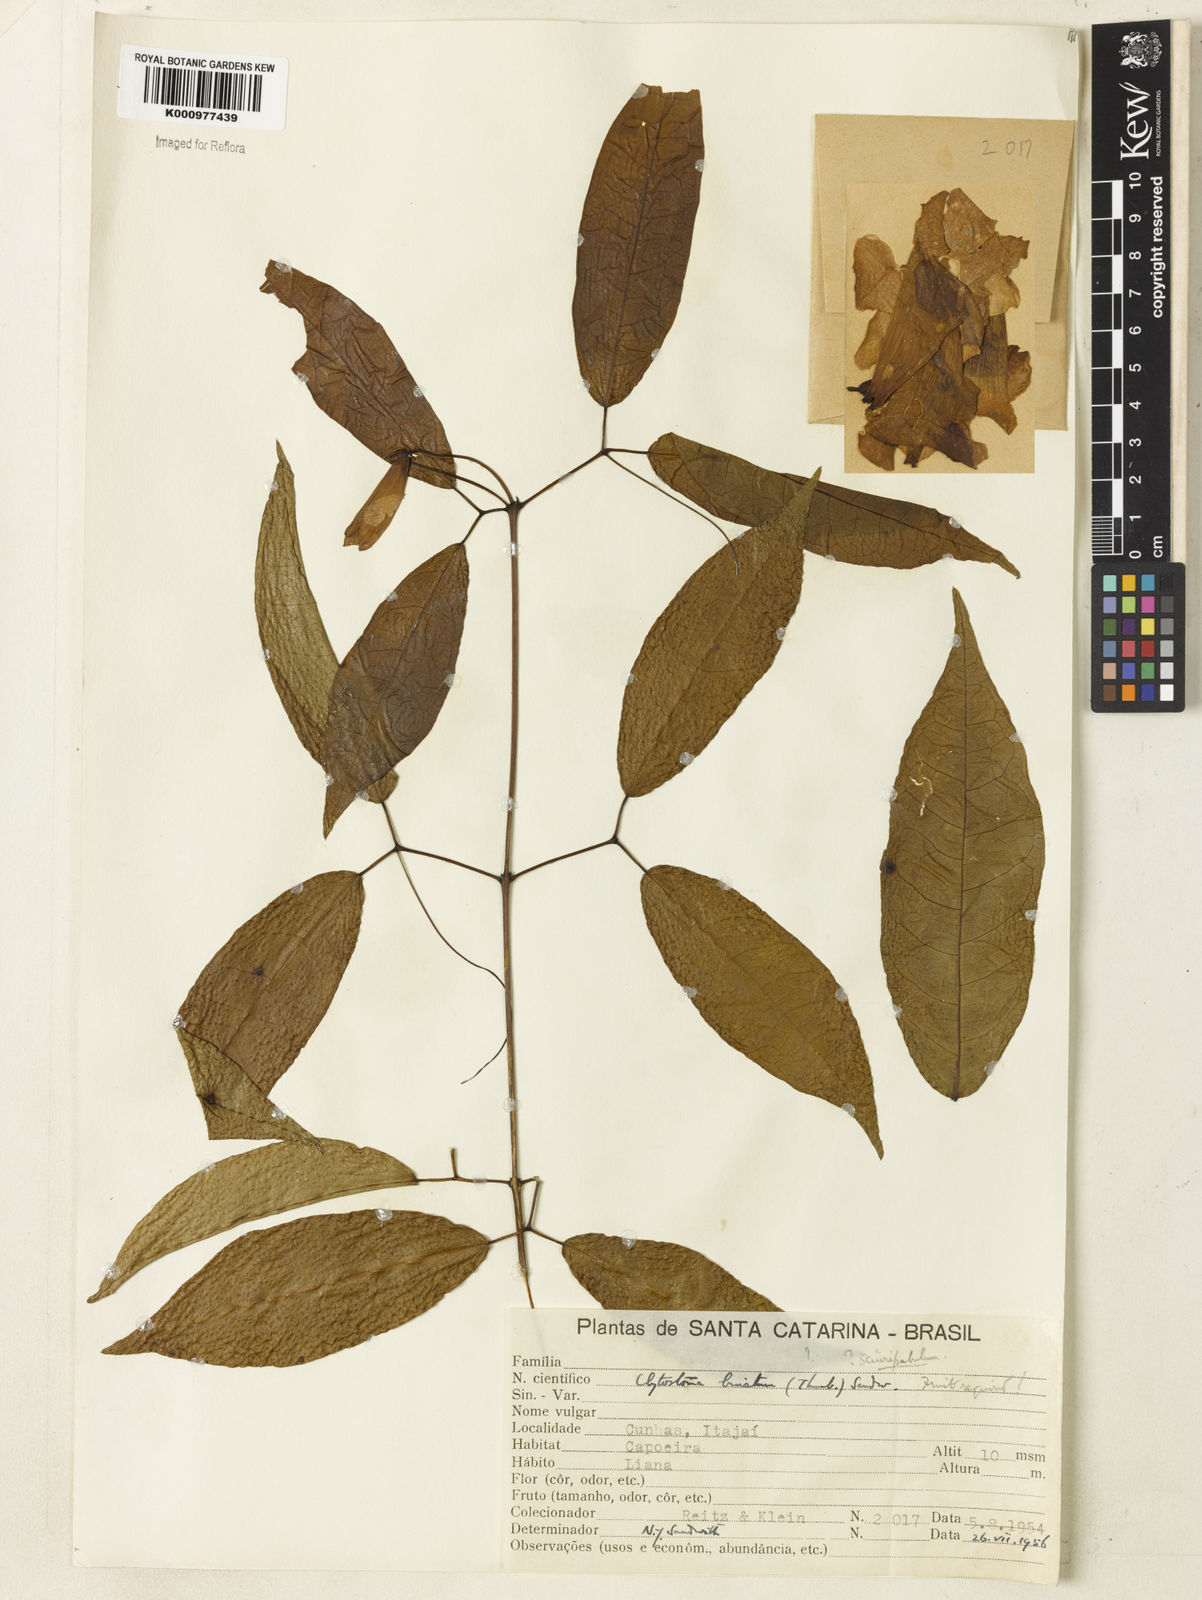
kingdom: Plantae
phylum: Tracheophyta
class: Magnoliopsida
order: Lamiales
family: Bignoniaceae
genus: Bignonia
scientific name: Bignonia
